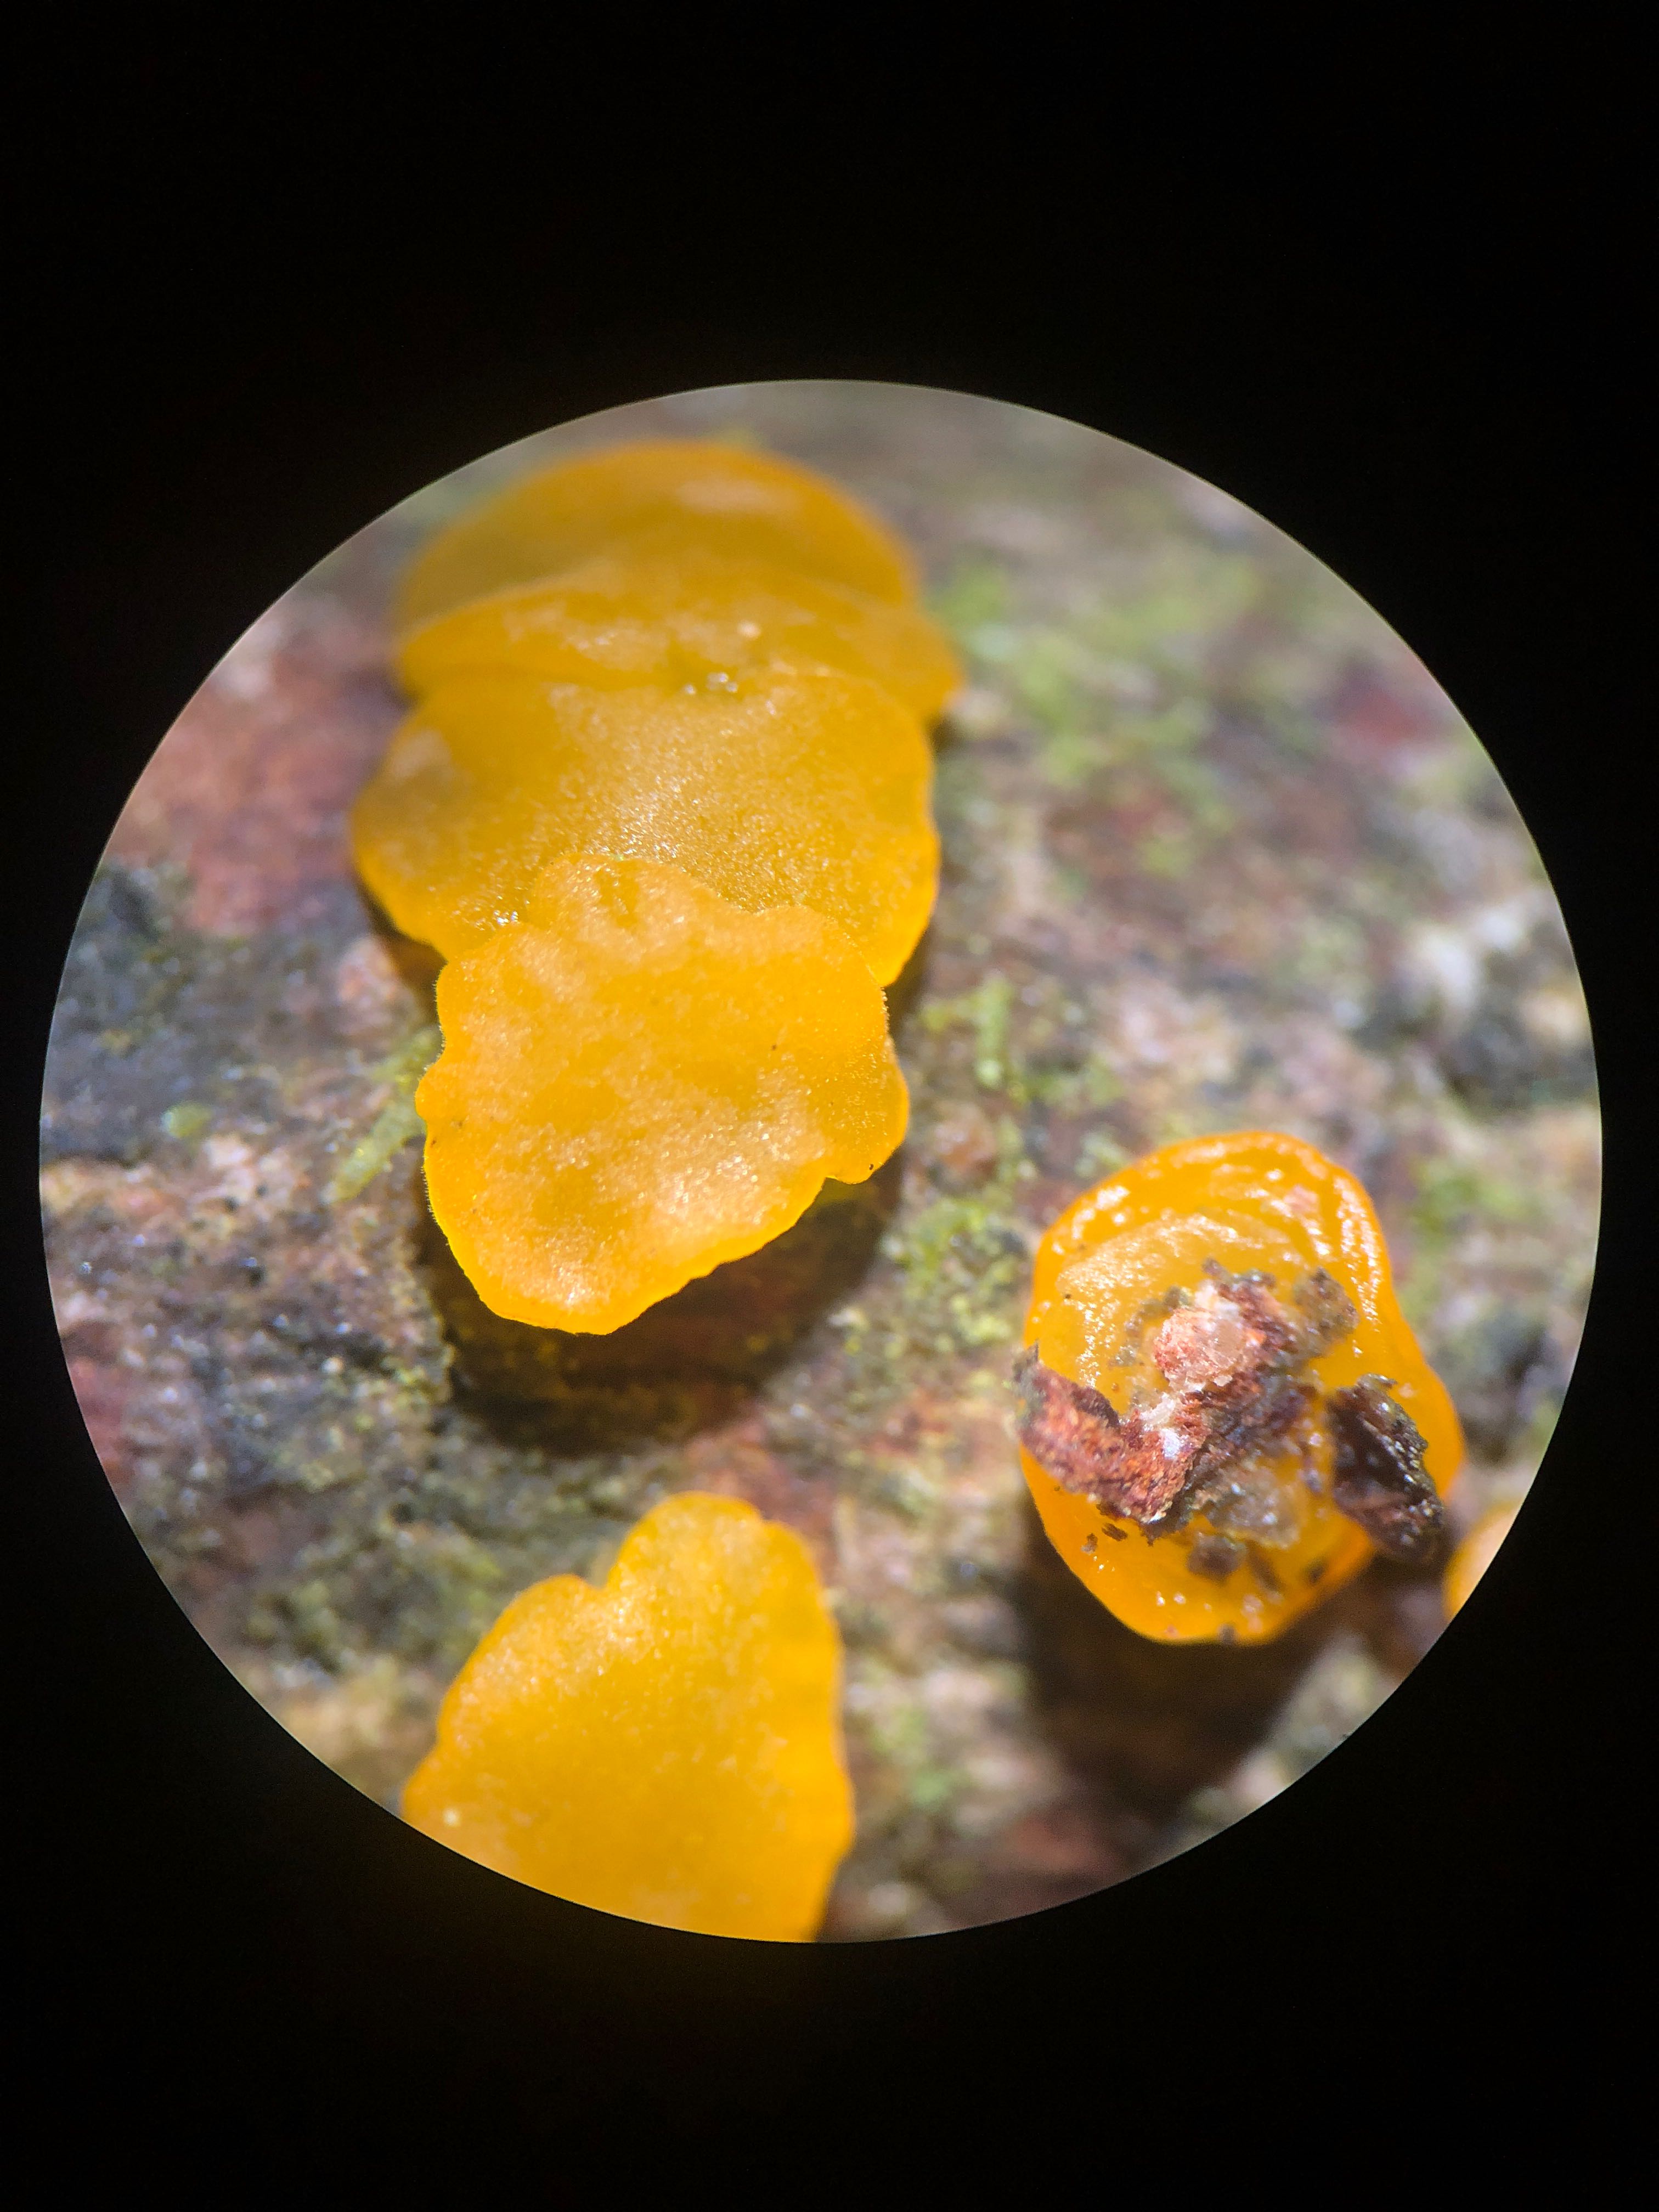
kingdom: Fungi
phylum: Basidiomycota
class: Dacrymycetes
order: Dacrymycetales
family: Dacrymycetaceae
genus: Dacrymyces
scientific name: Dacrymyces variisporus
